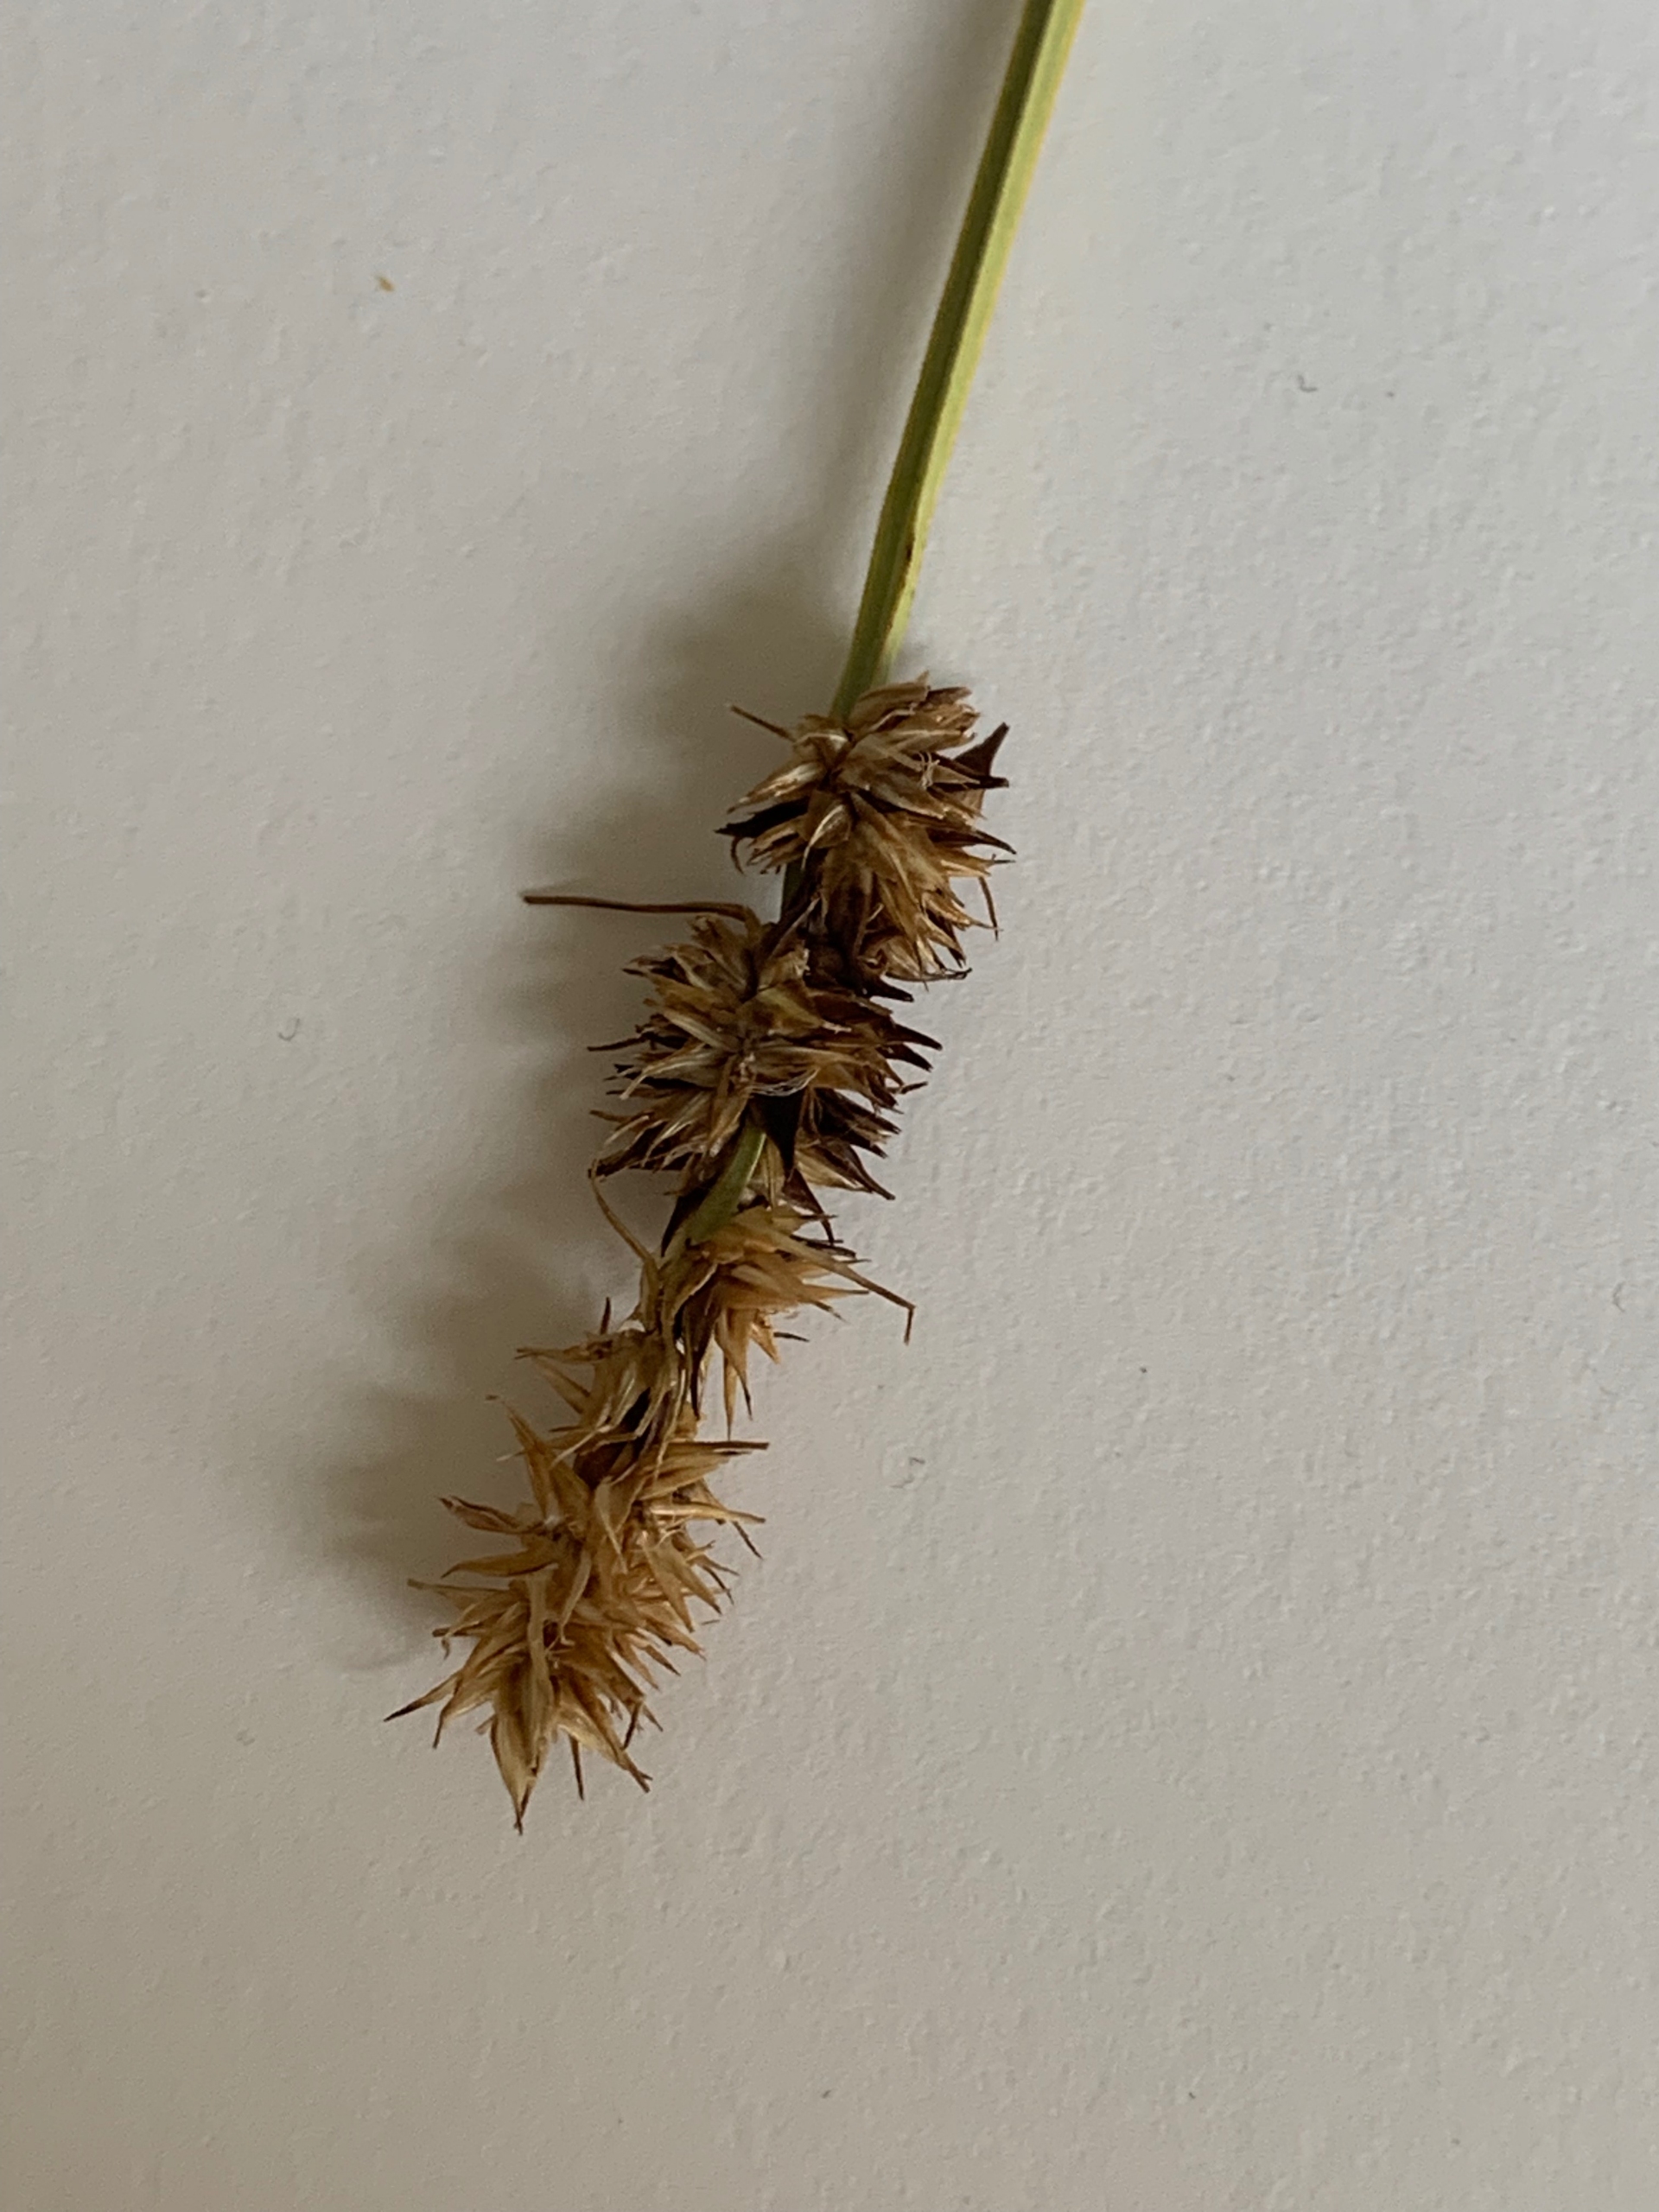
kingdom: Plantae
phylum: Tracheophyta
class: Liliopsida
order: Poales
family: Cyperaceae
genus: Carex
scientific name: Carex otrubae
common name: Sylt-star
